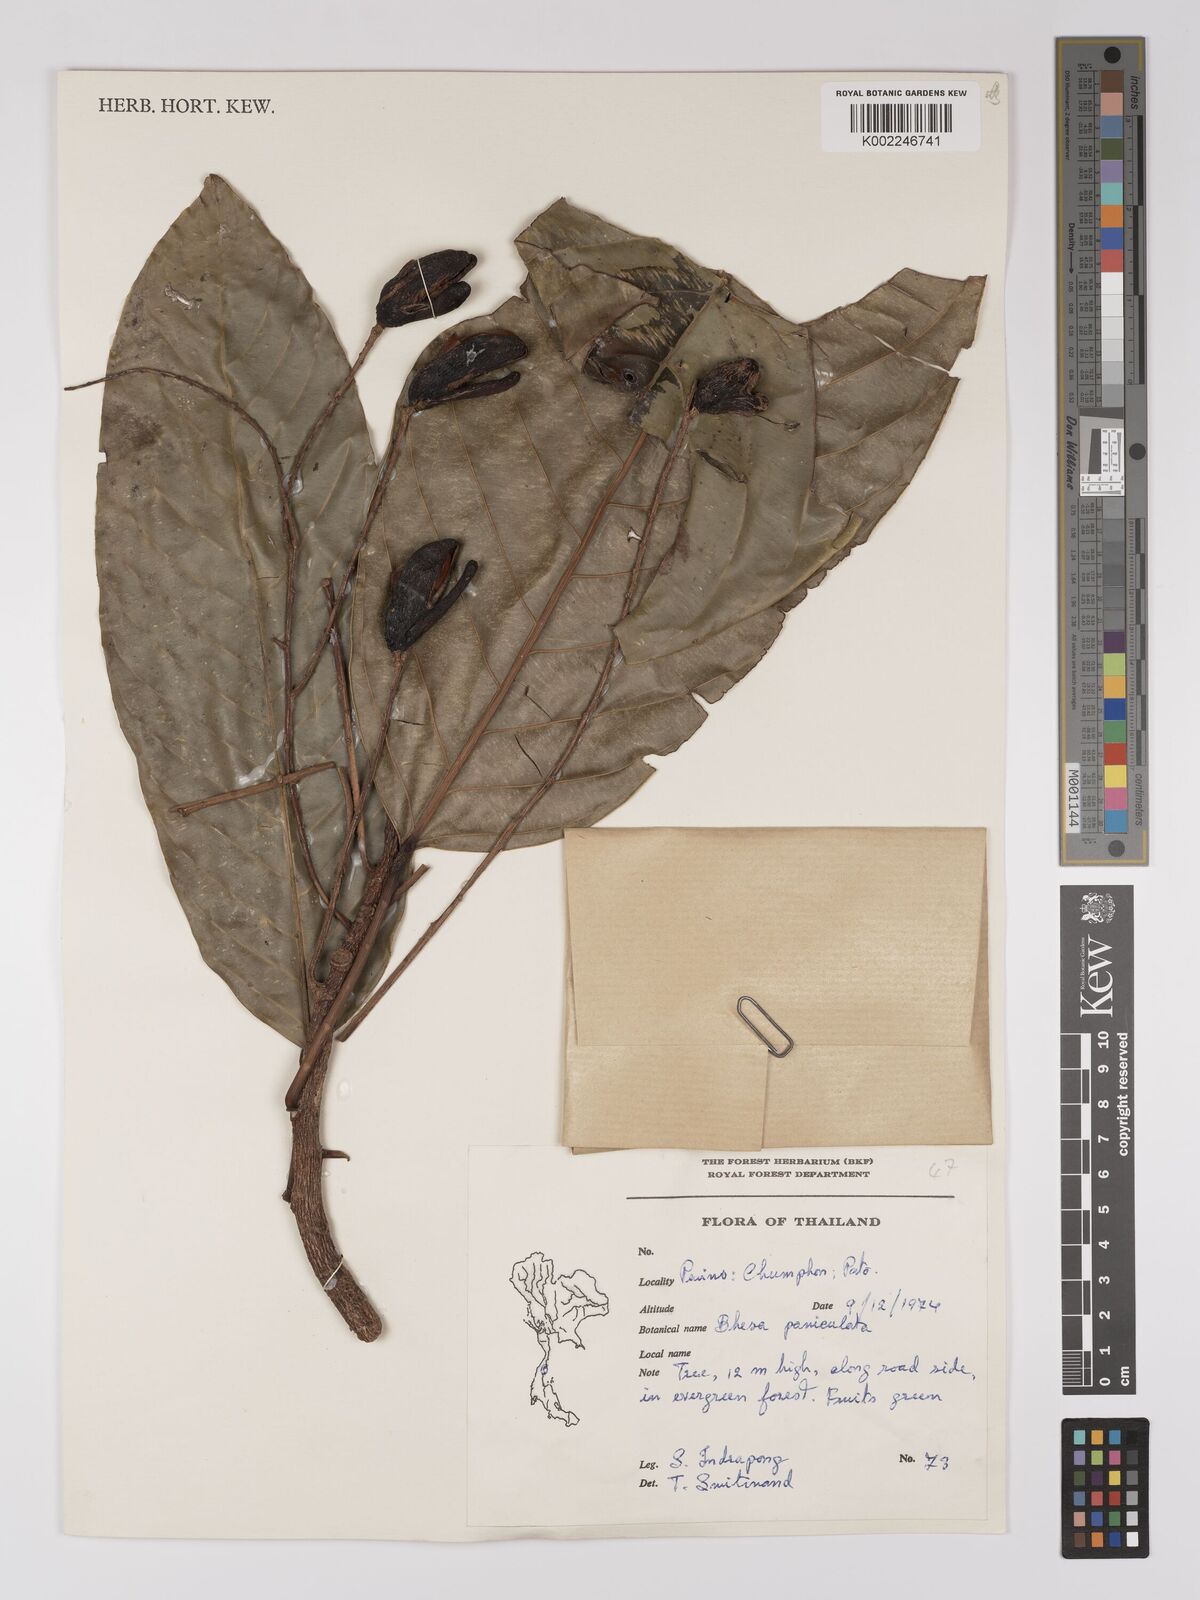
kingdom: Plantae
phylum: Tracheophyta
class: Magnoliopsida
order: Malpighiales
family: Centroplacaceae
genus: Bhesa
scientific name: Bhesa indica
